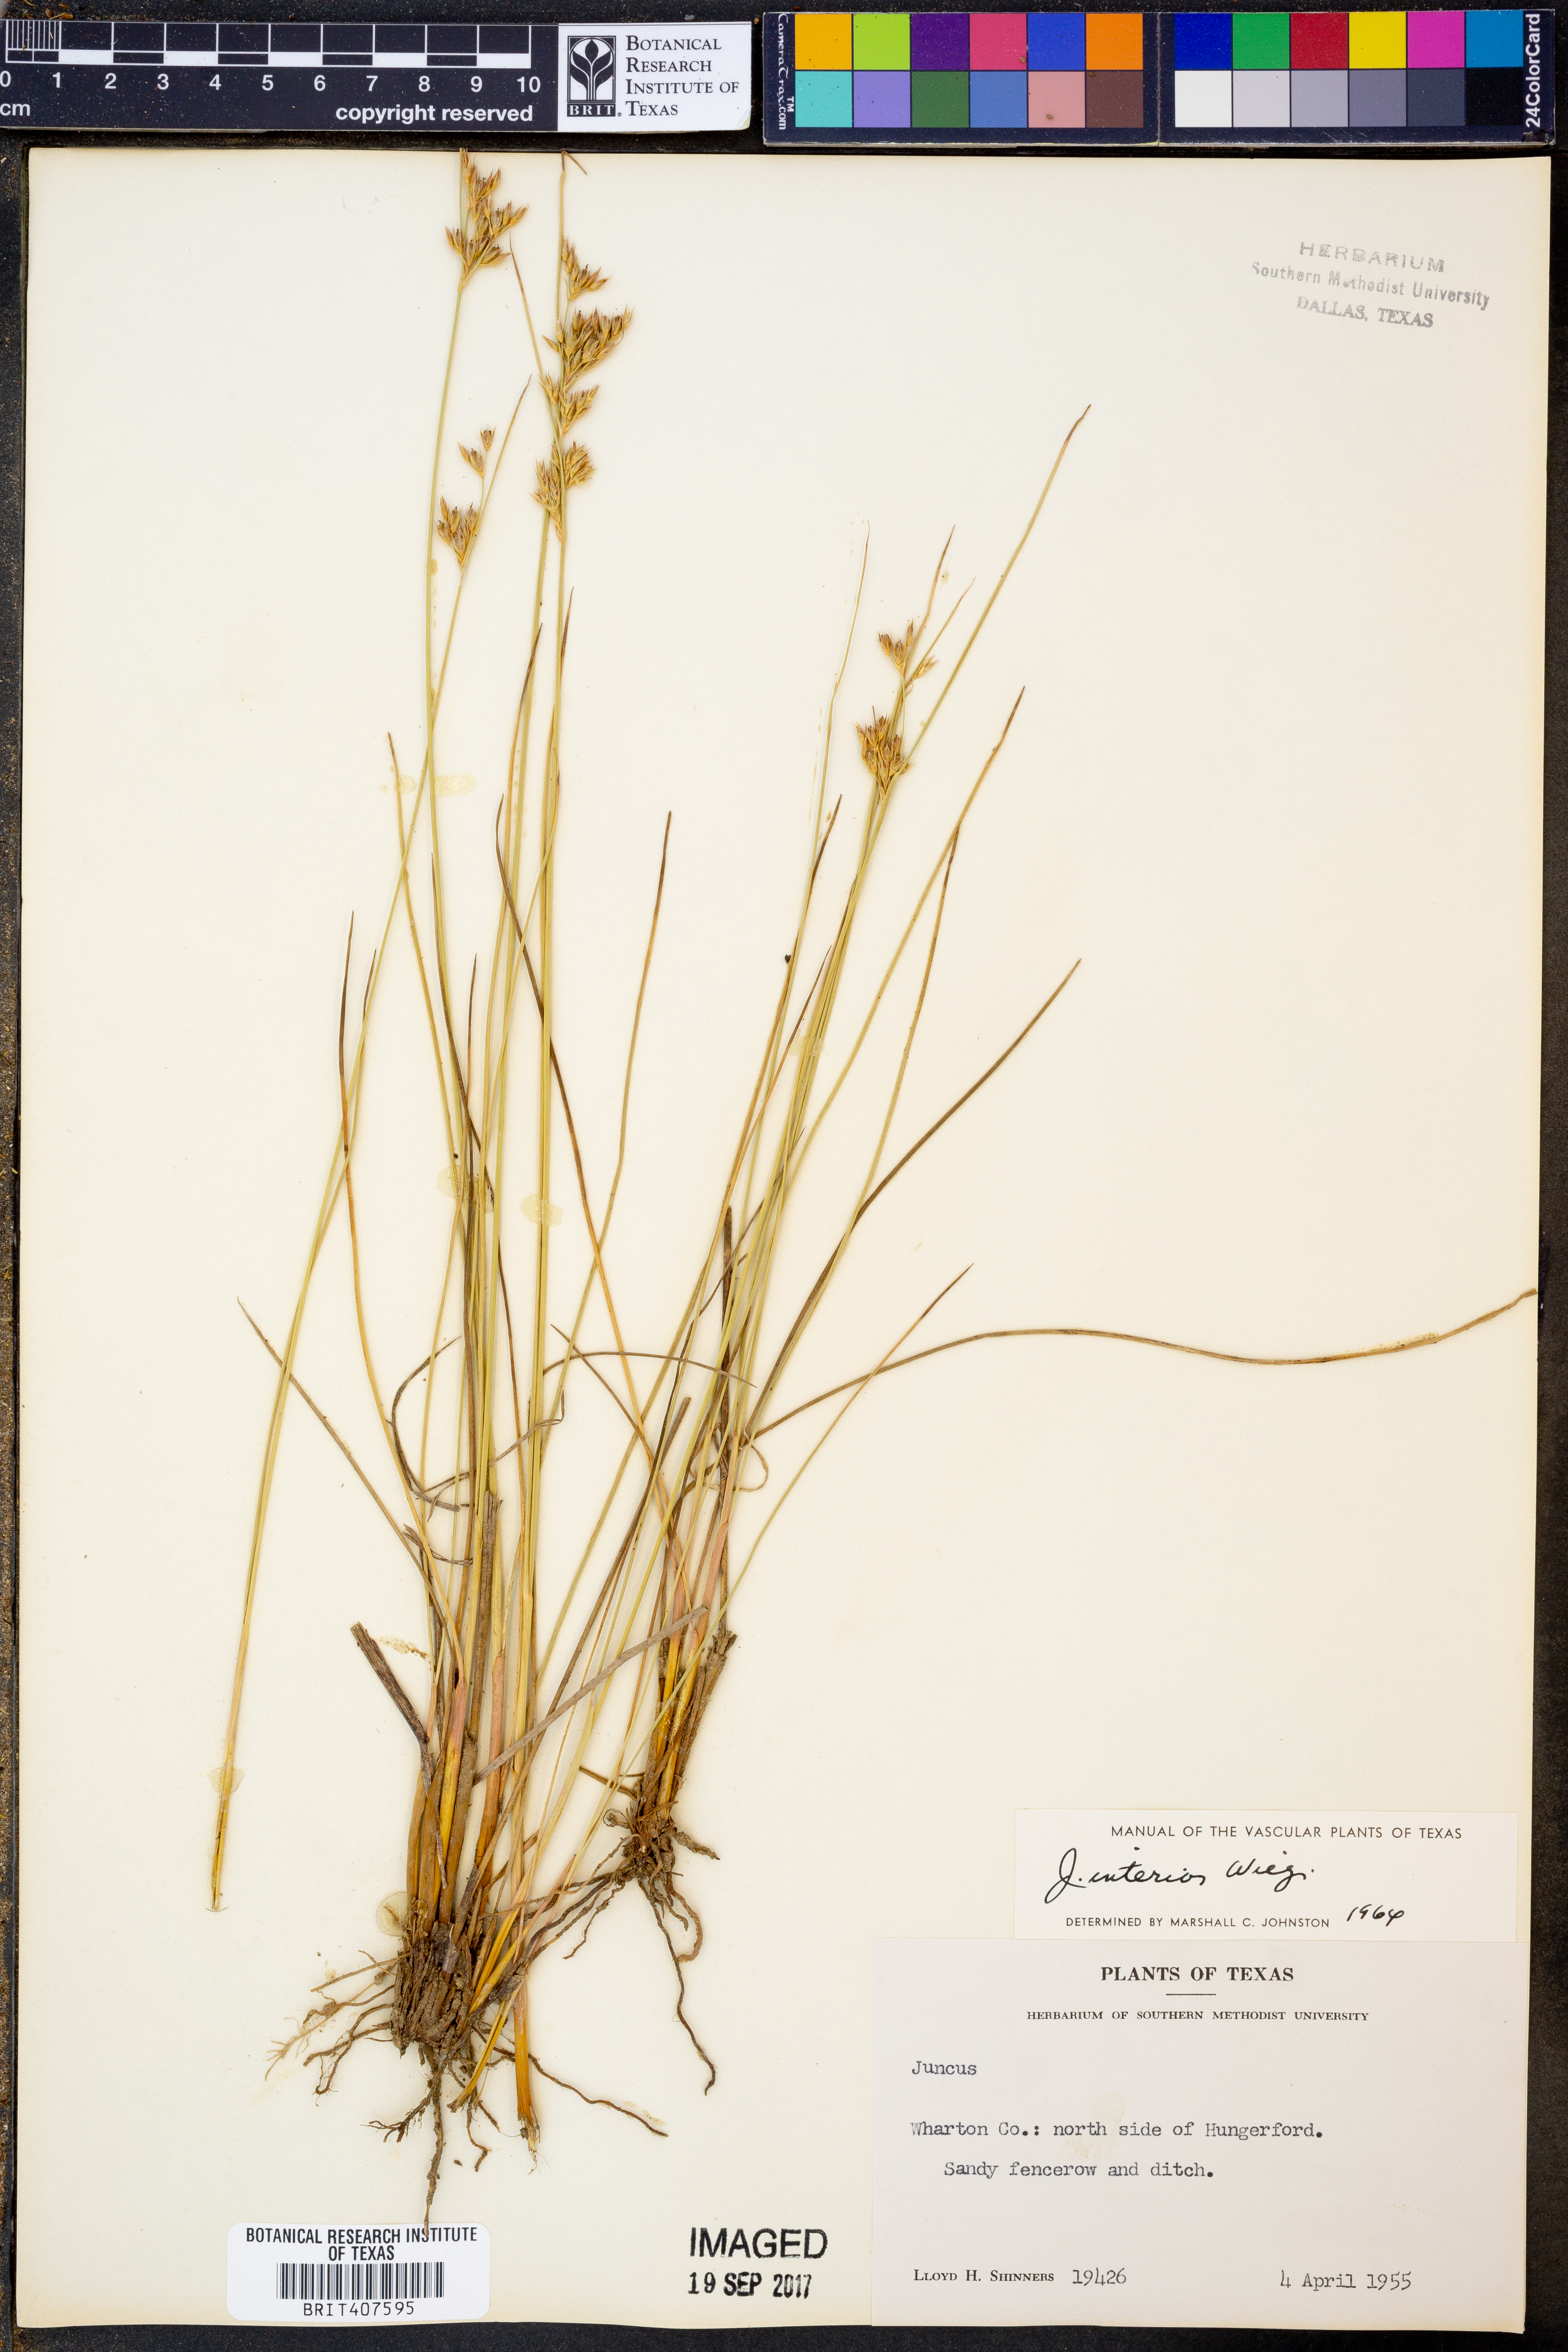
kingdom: Plantae
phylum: Tracheophyta
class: Liliopsida
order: Poales
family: Juncaceae
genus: Juncus
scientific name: Juncus interior
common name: Interior rush
